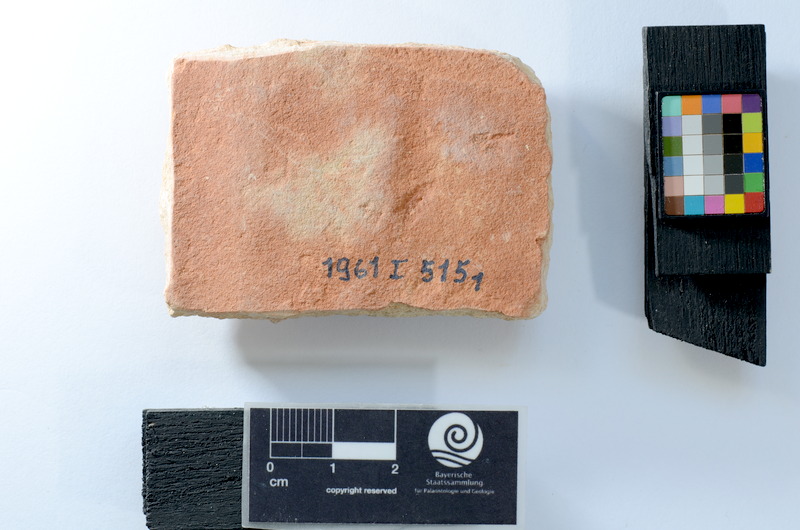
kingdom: Animalia
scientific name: Animalia
